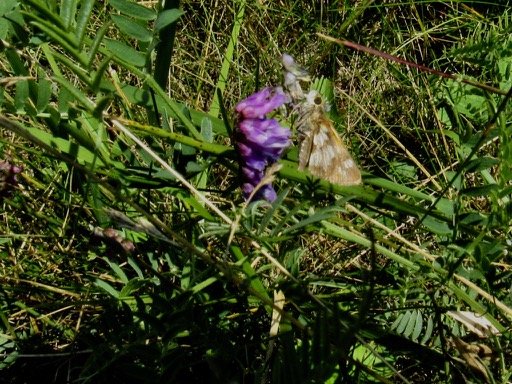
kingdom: Animalia
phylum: Arthropoda
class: Insecta
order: Lepidoptera
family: Hesperiidae
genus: Polites
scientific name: Polites coras
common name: Peck's Skipper
